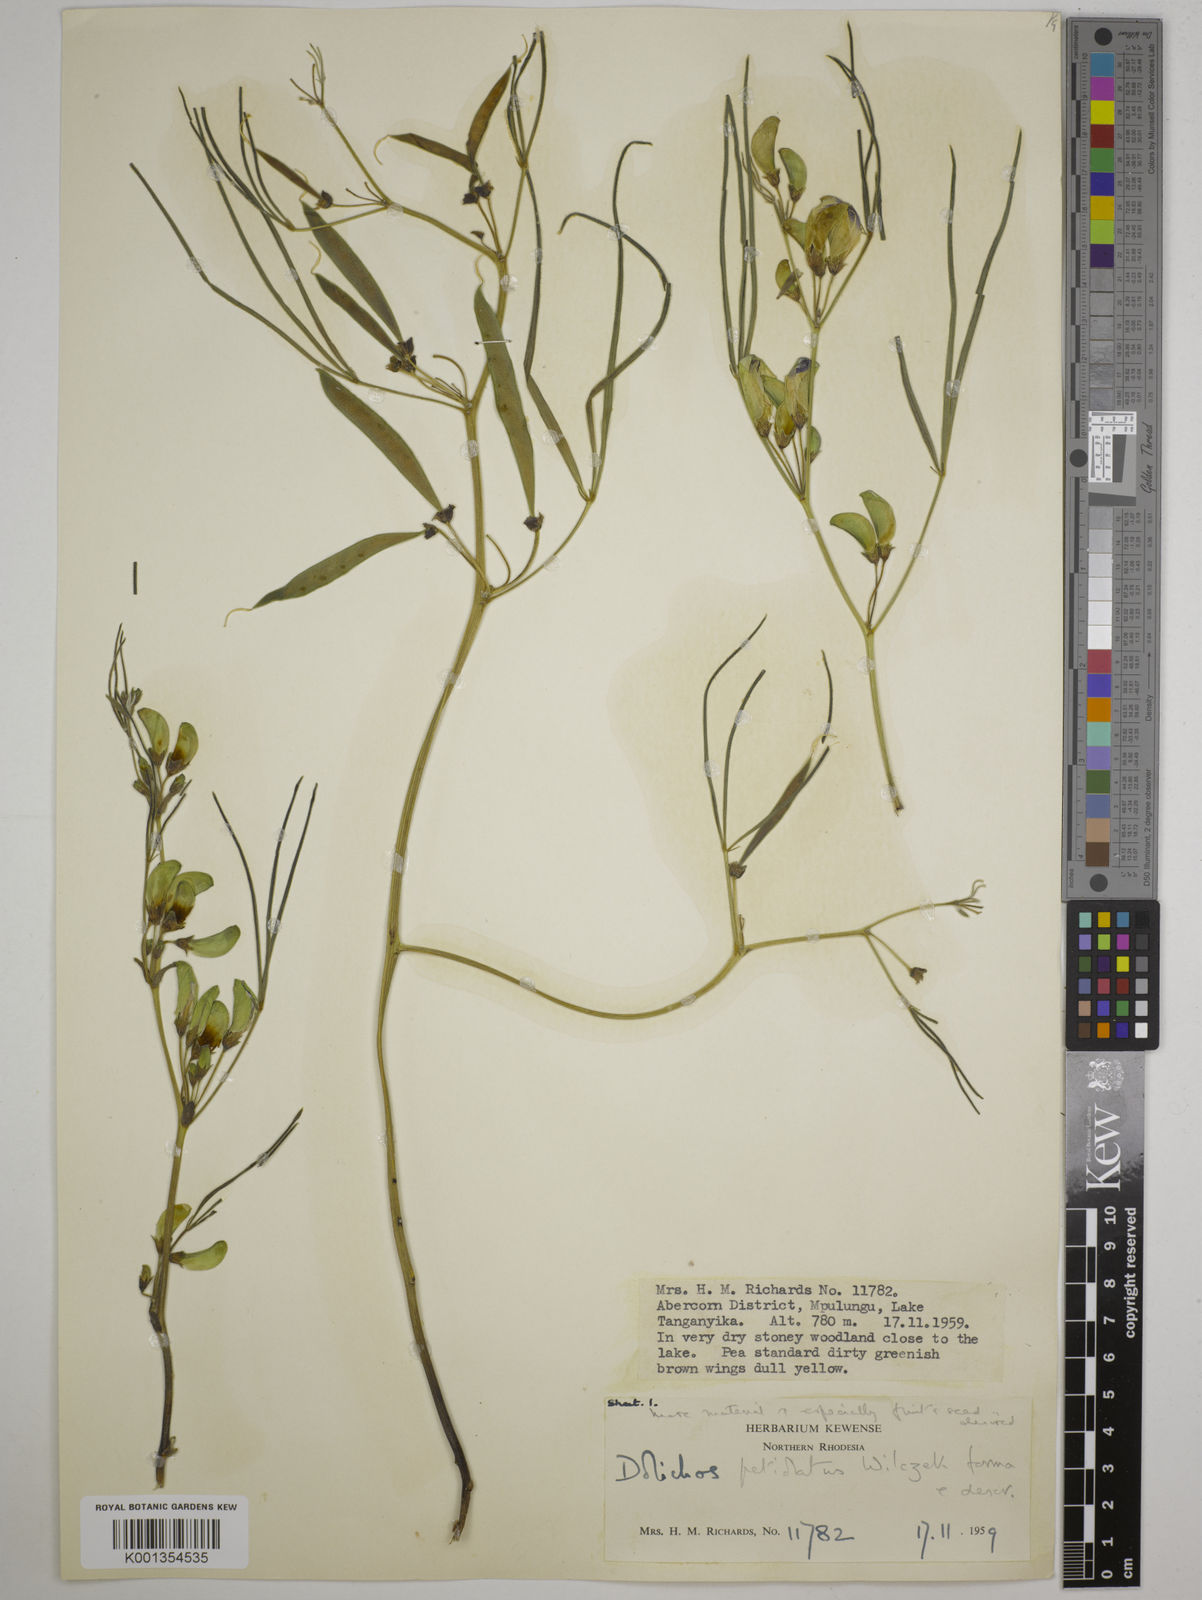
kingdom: Plantae
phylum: Tracheophyta
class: Magnoliopsida
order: Fabales
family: Fabaceae
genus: Dolichos
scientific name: Dolichos petiolatus
